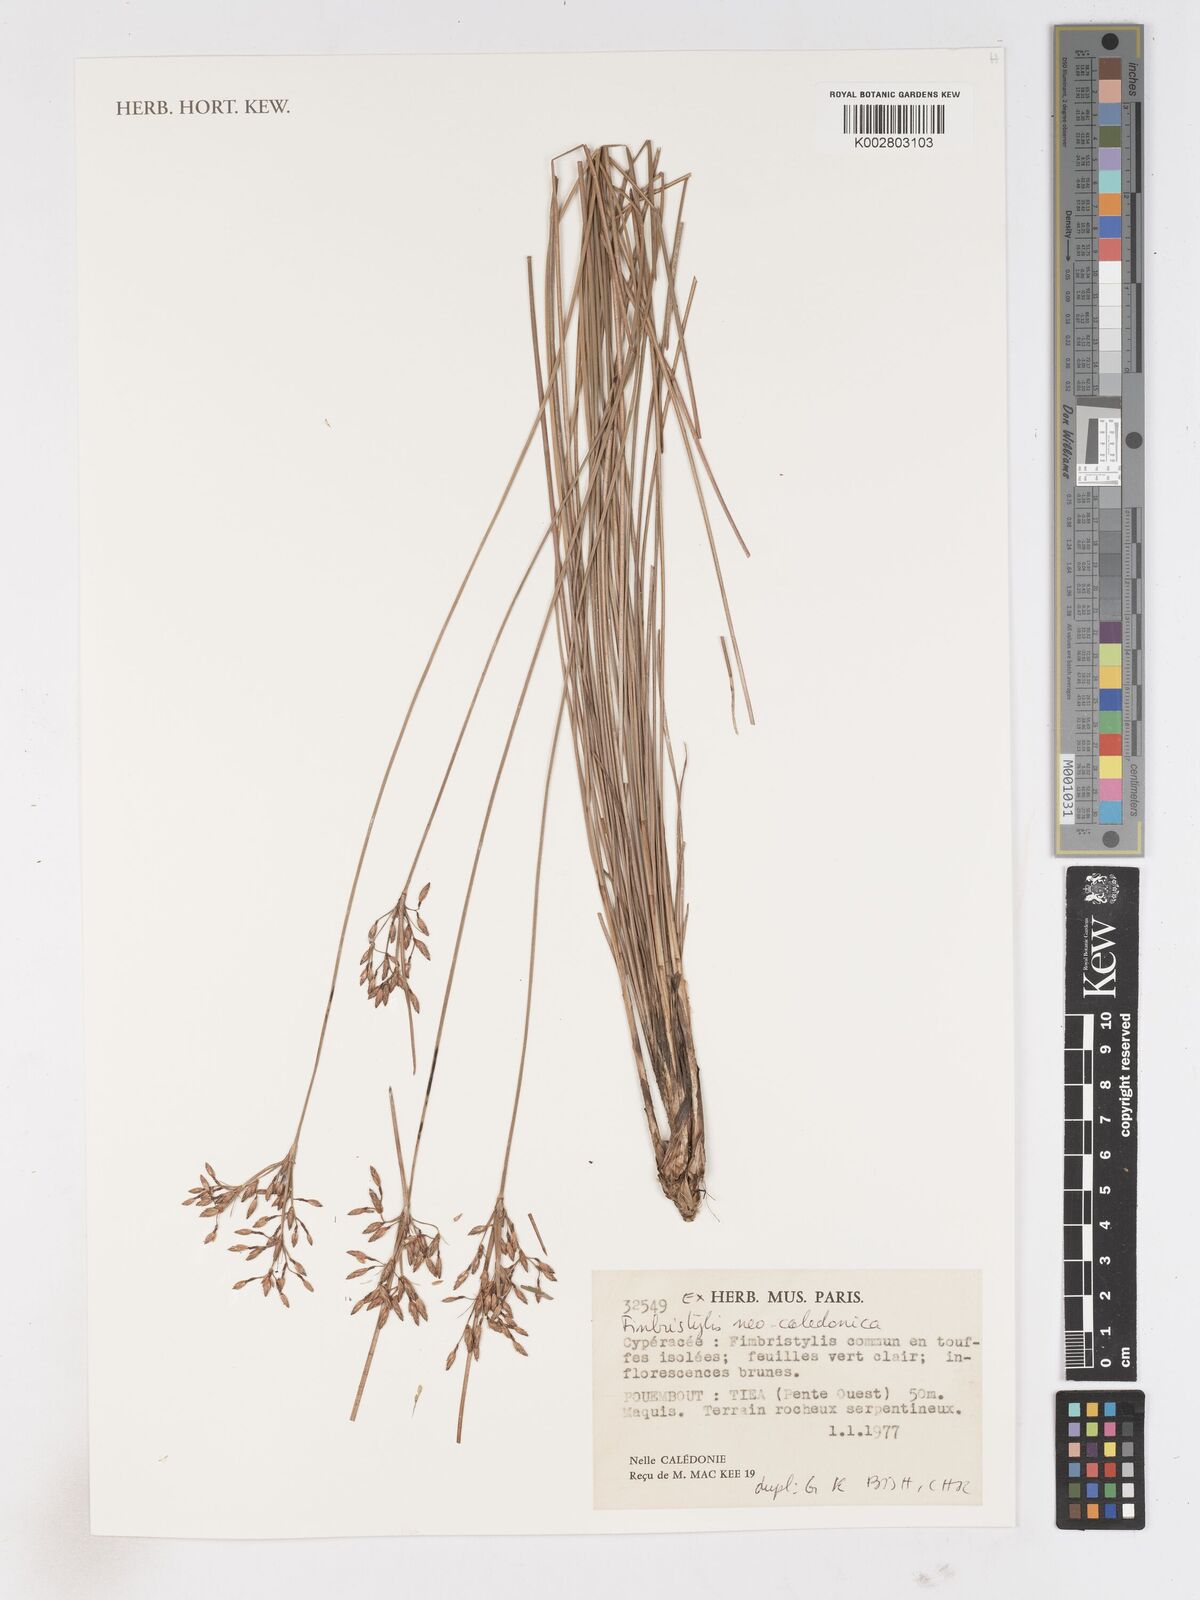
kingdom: Plantae
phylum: Tracheophyta
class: Liliopsida
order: Poales
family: Cyperaceae
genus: Fimbristylis
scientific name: Fimbristylis neocaledonica
